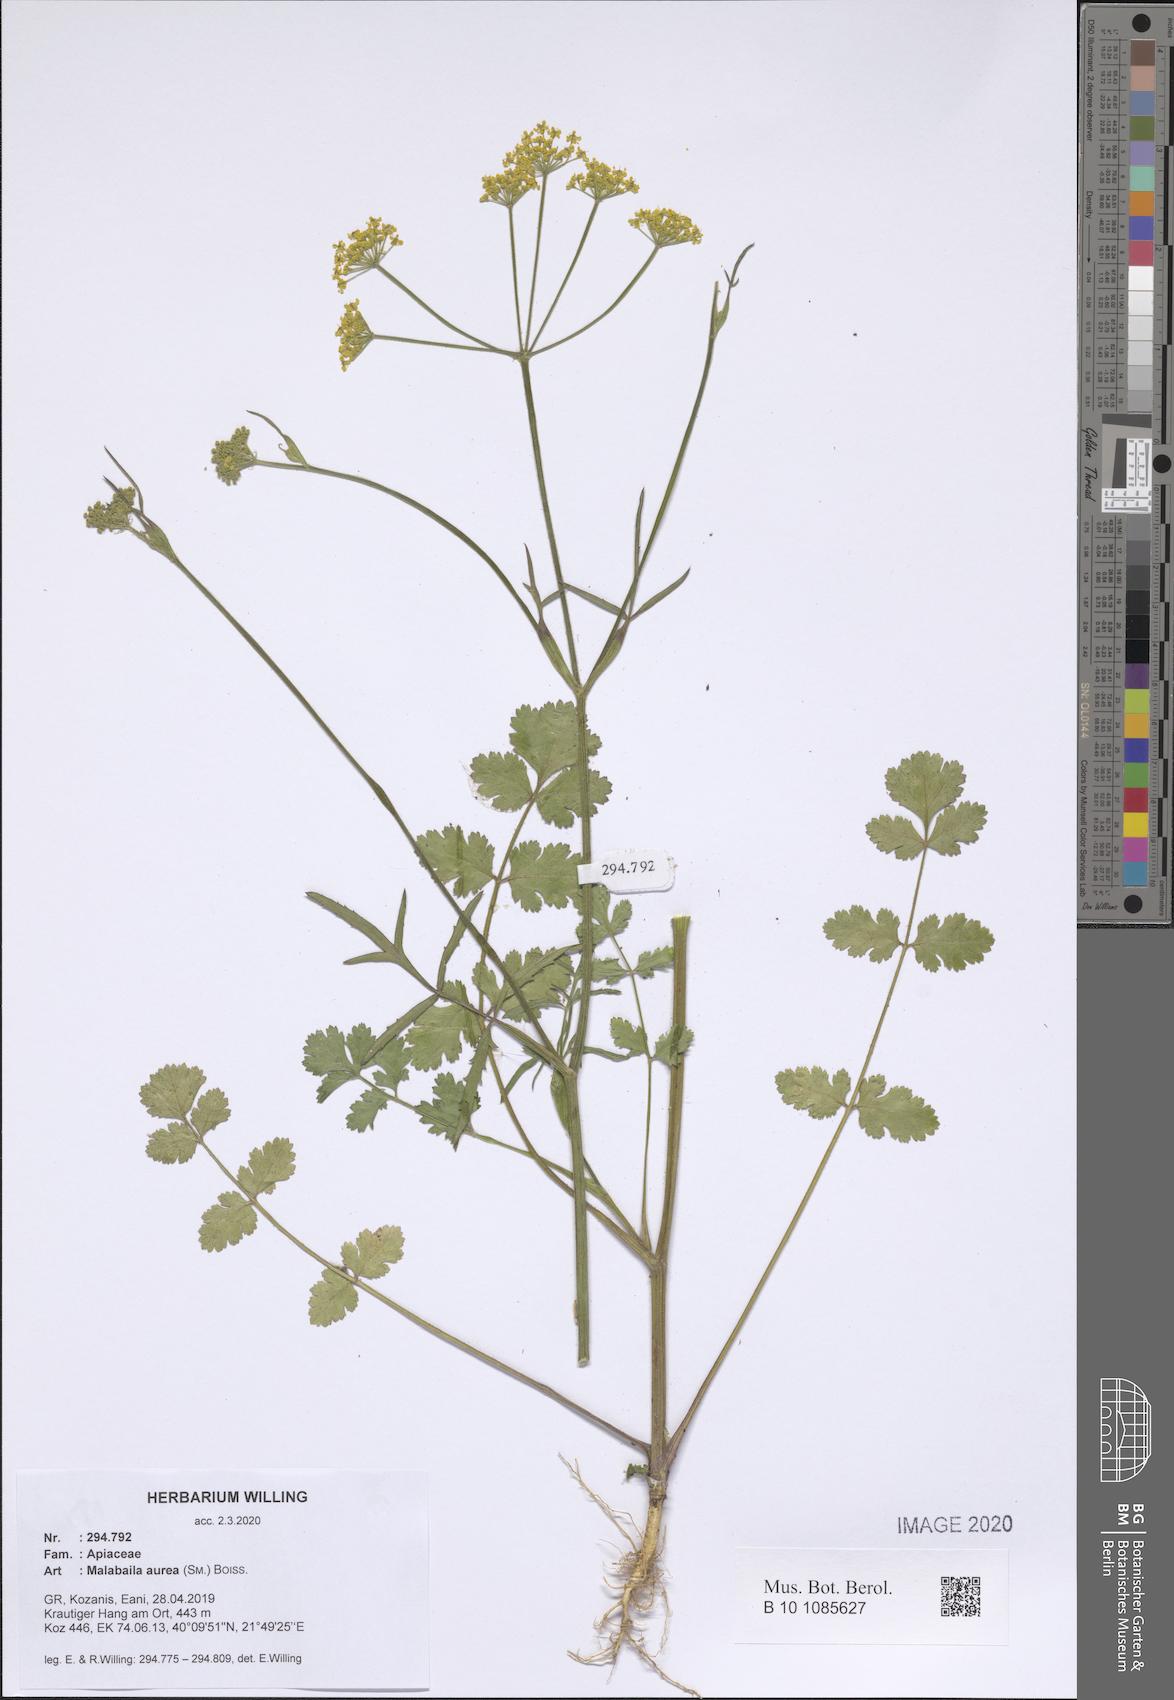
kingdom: Plantae
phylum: Tracheophyta
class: Magnoliopsida
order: Apiales
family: Apiaceae
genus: Leiotulus
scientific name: Leiotulus aureus
